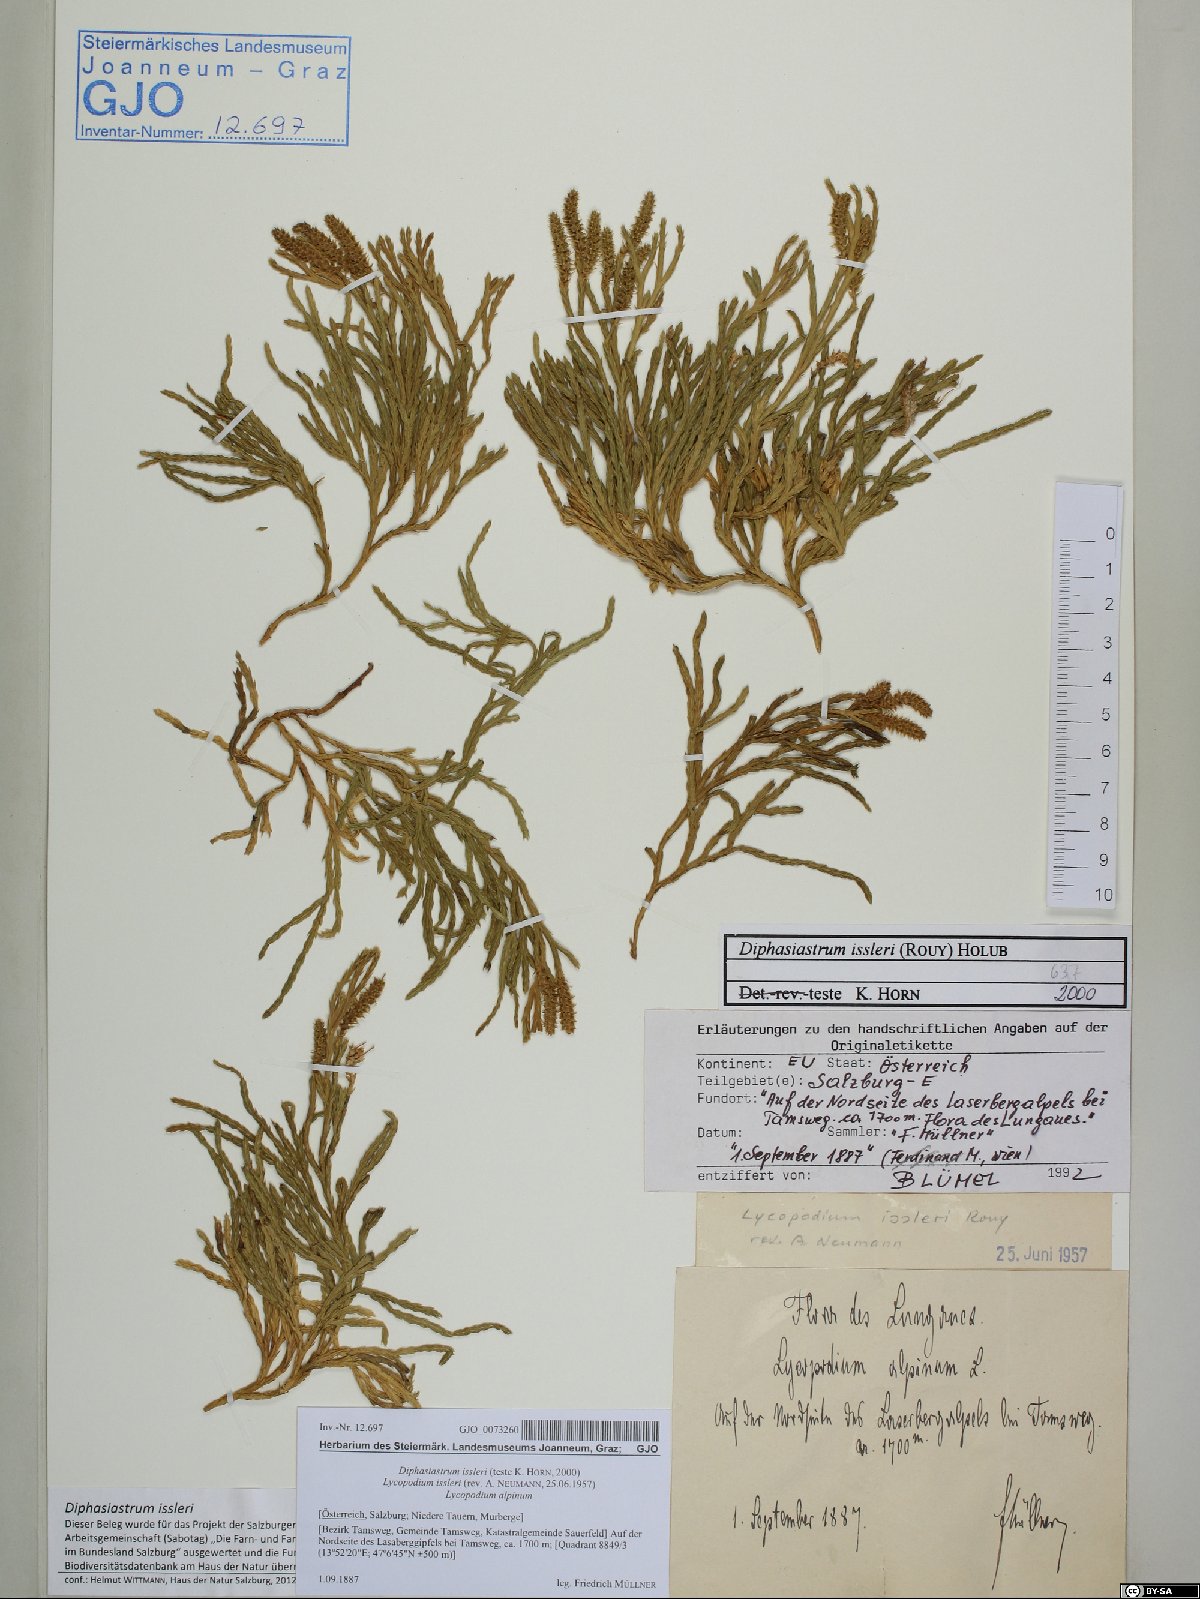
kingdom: Plantae
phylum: Tracheophyta
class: Lycopodiopsida
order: Lycopodiales
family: Lycopodiaceae
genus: Diphasiastrum
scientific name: Diphasiastrum issleri
